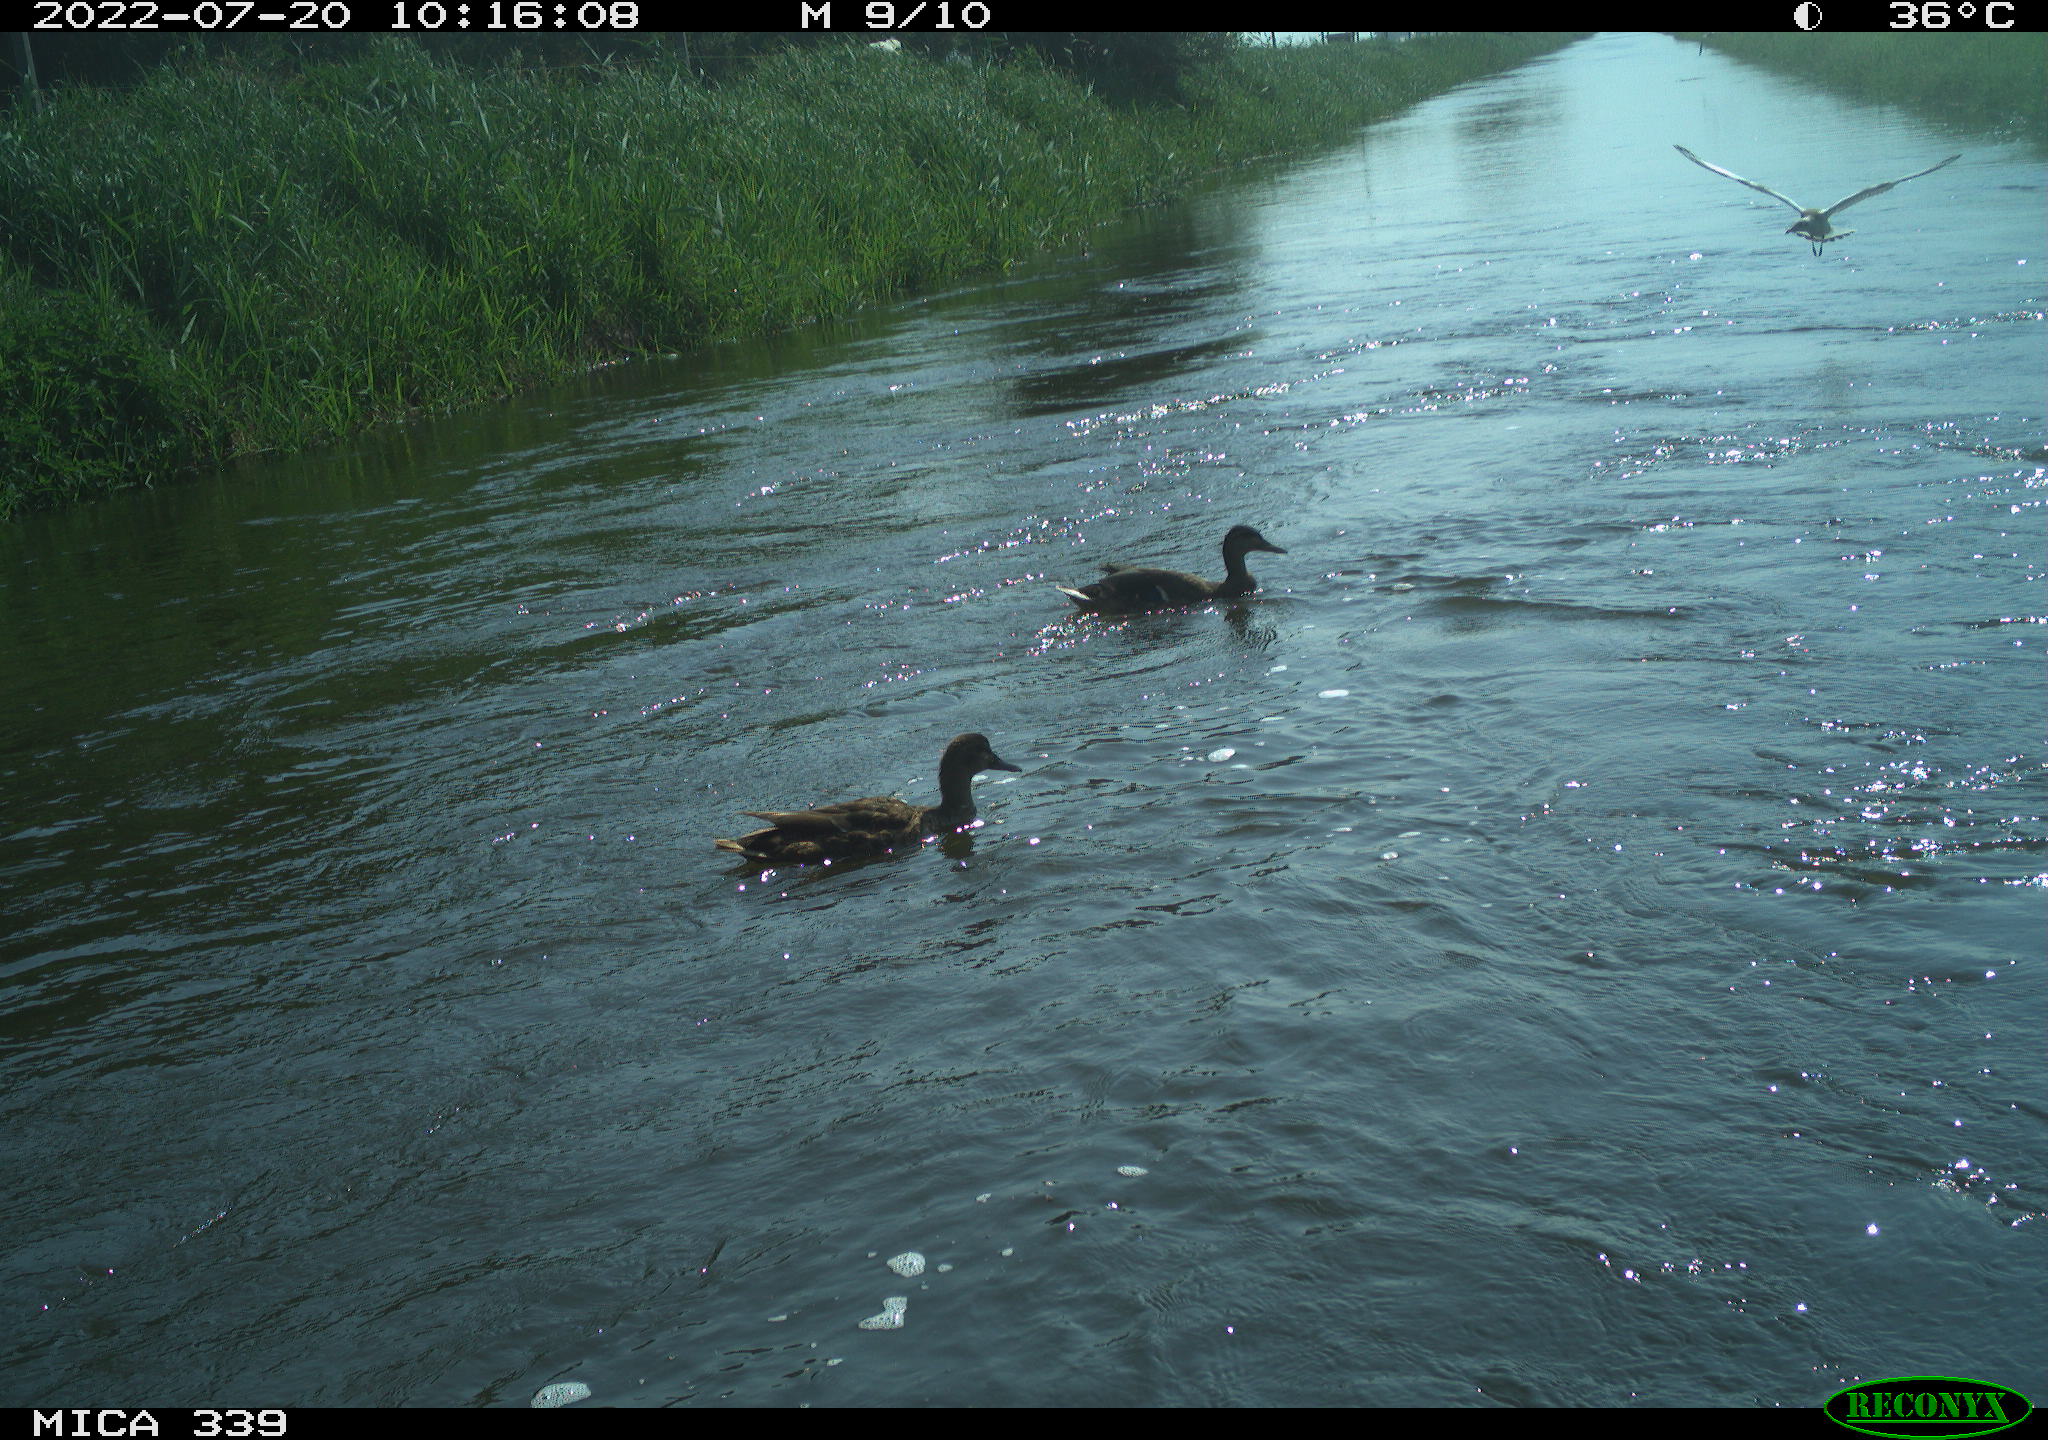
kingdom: Animalia
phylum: Chordata
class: Aves
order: Anseriformes
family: Anatidae
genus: Anas
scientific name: Anas platyrhynchos
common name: Mallard
